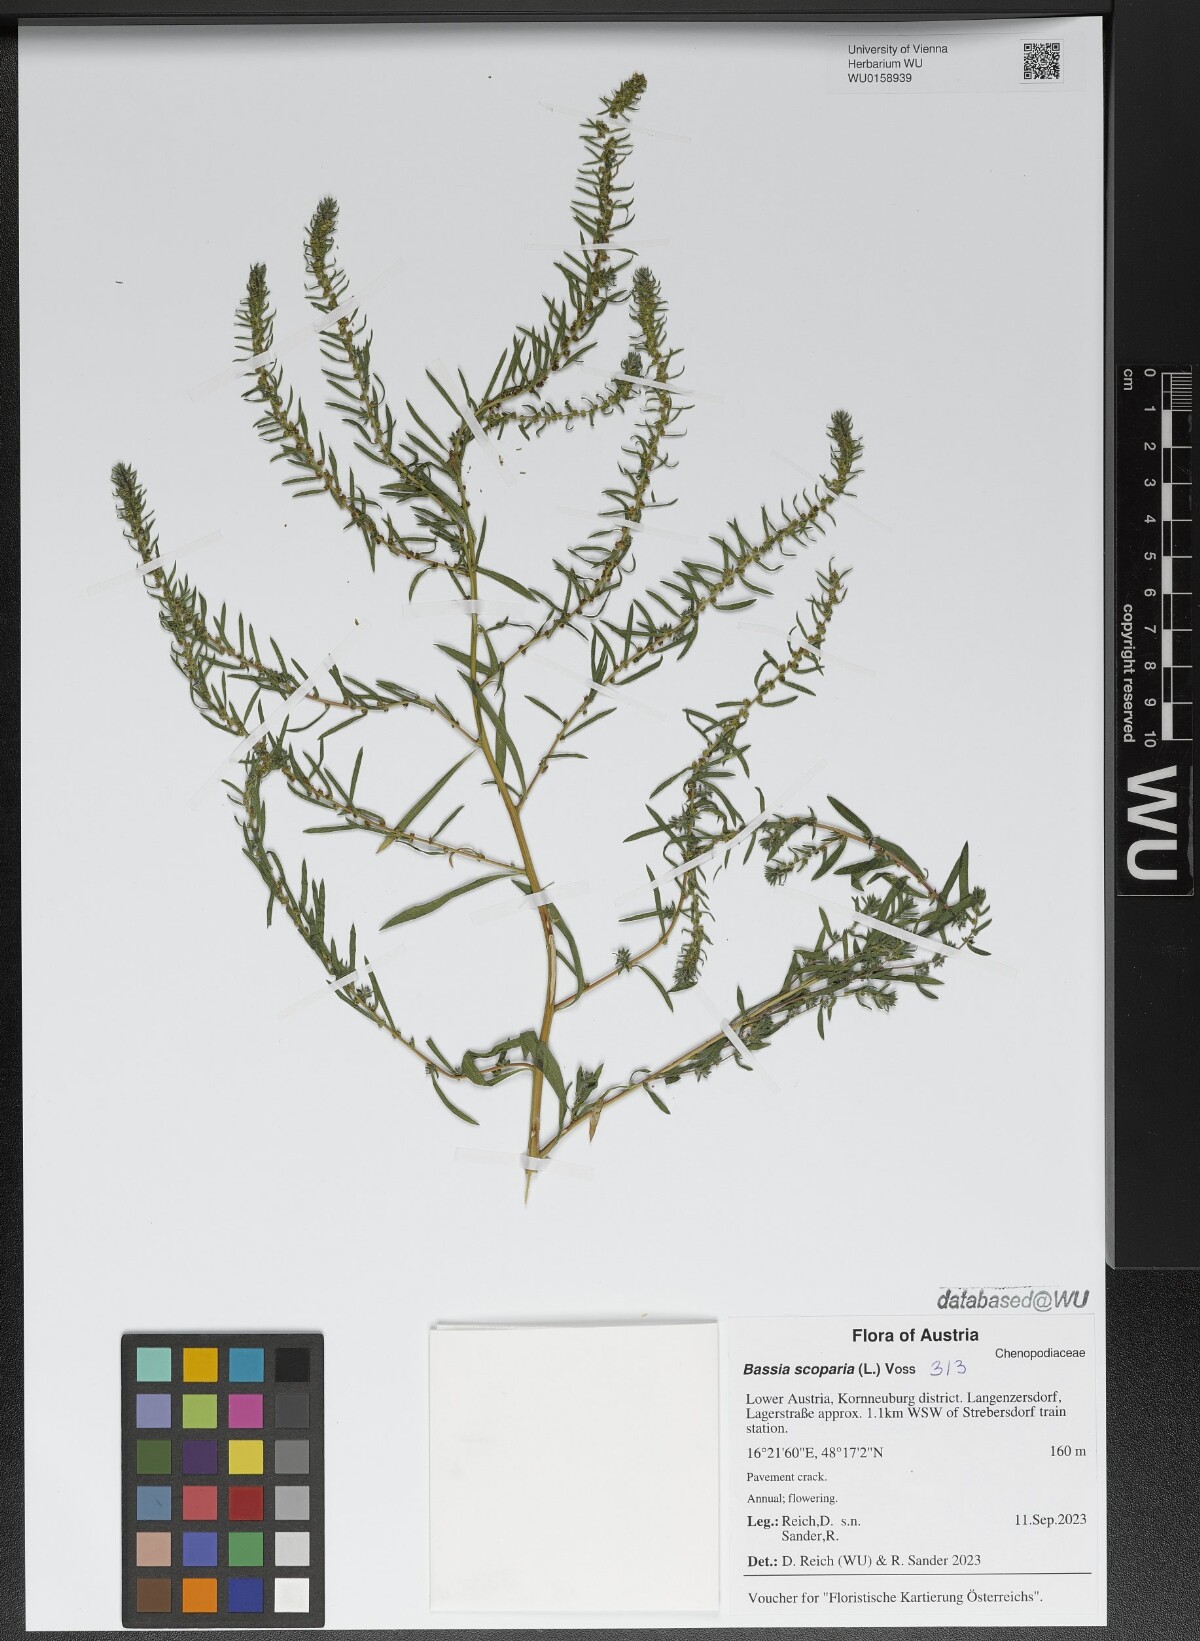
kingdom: Plantae
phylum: Tracheophyta
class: Magnoliopsida
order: Caryophyllales
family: Amaranthaceae
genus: Bassia
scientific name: Bassia scoparia
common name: Belvedere
